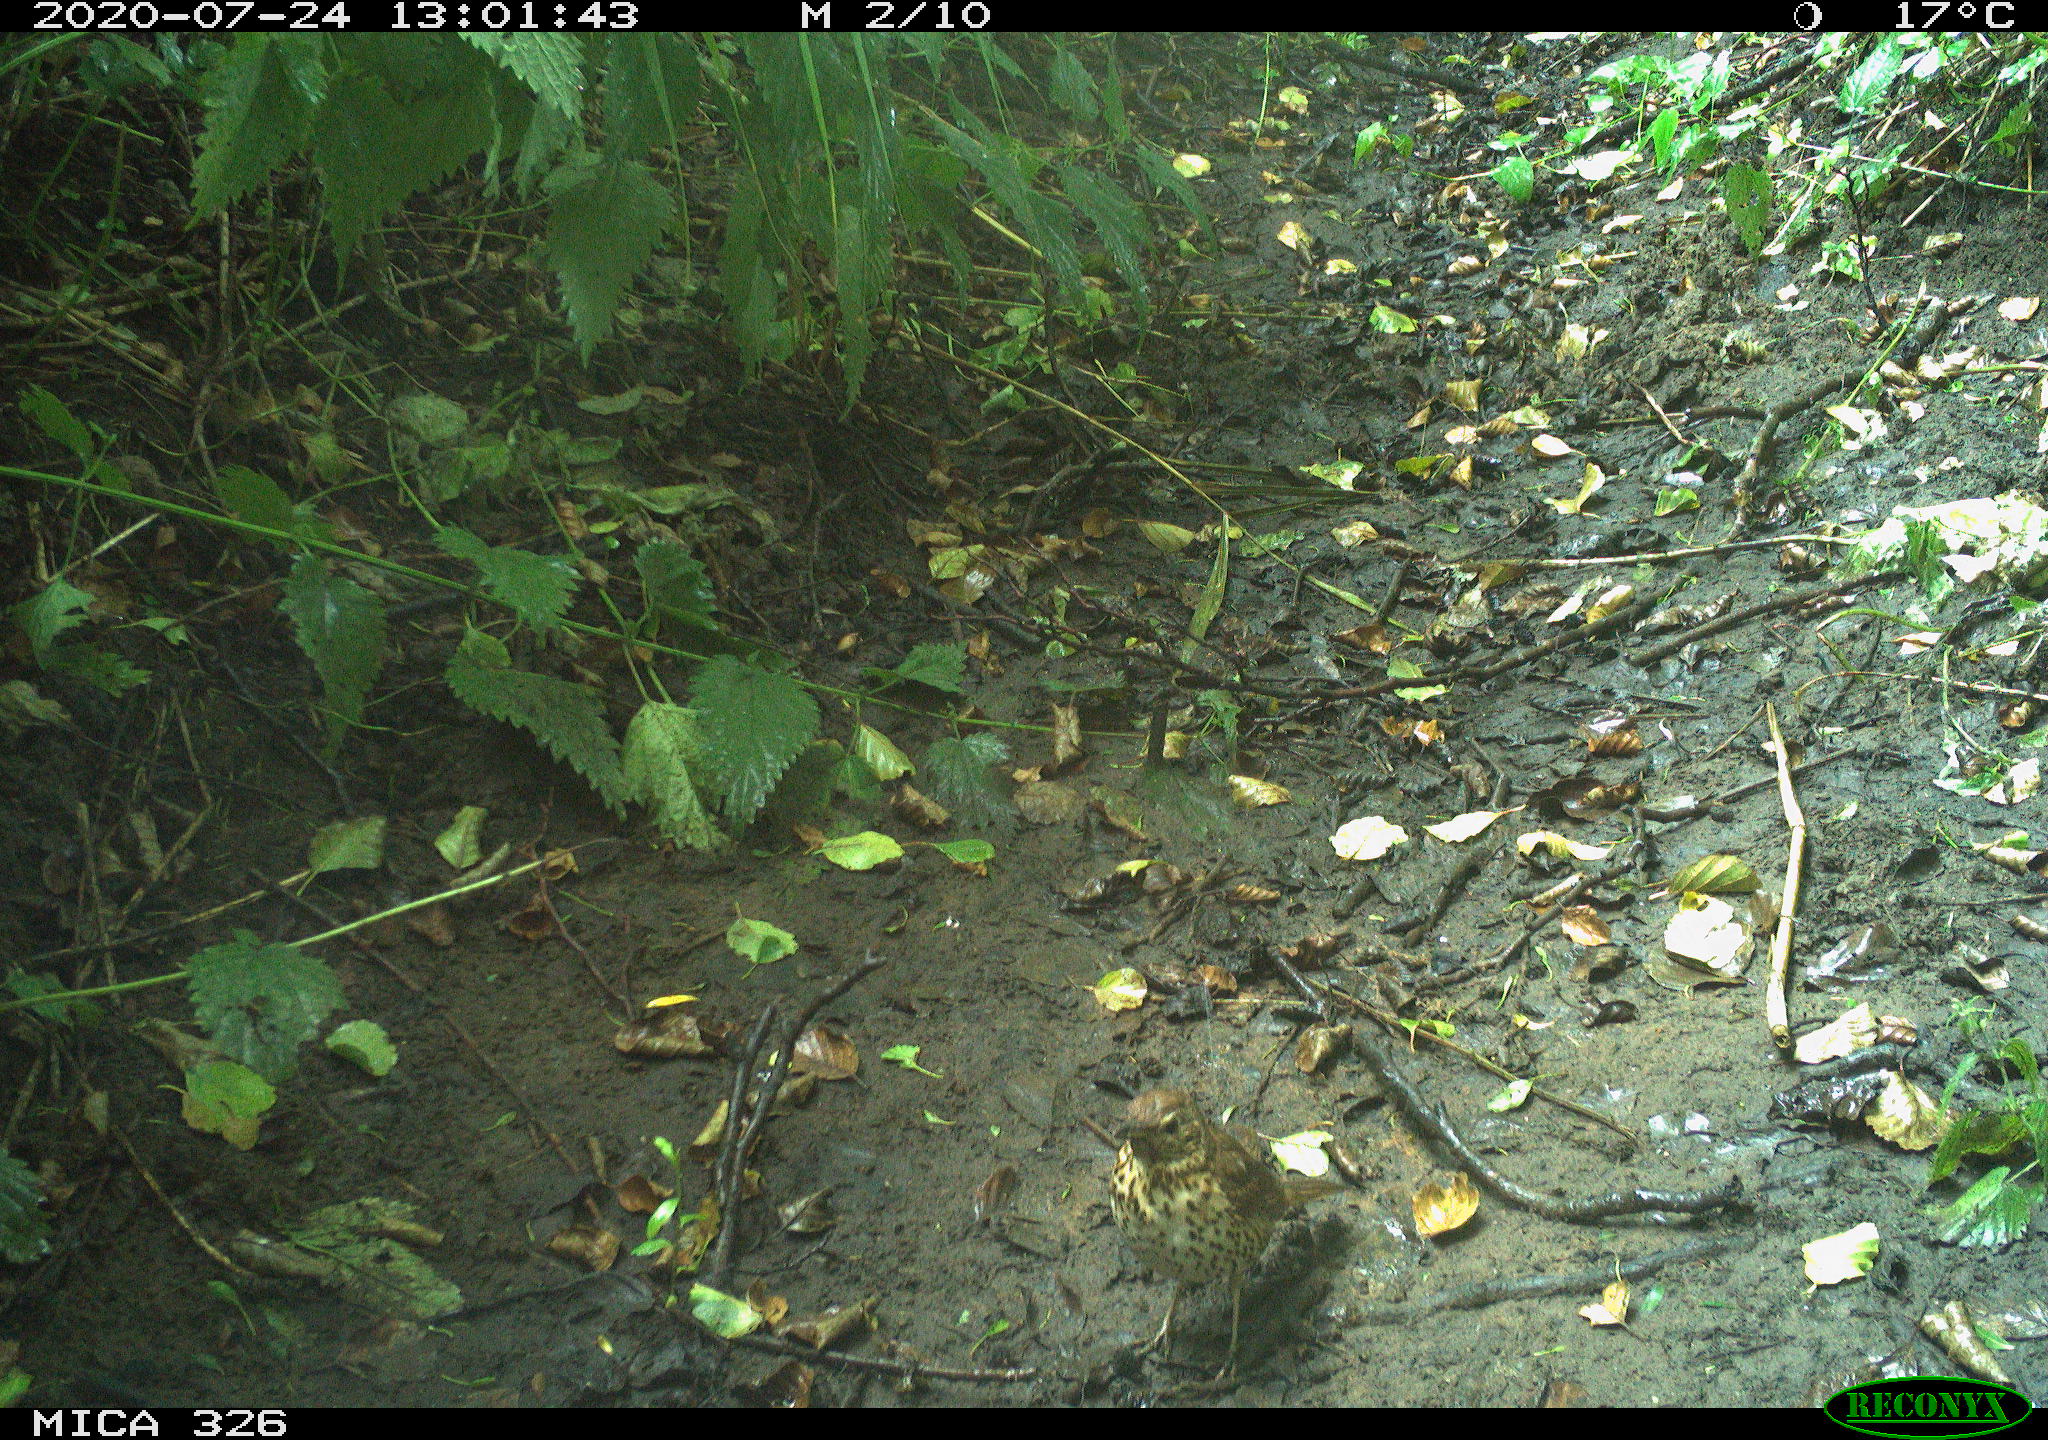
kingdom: Animalia
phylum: Chordata
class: Aves
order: Passeriformes
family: Turdidae
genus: Turdus
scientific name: Turdus philomelos
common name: Song thrush
